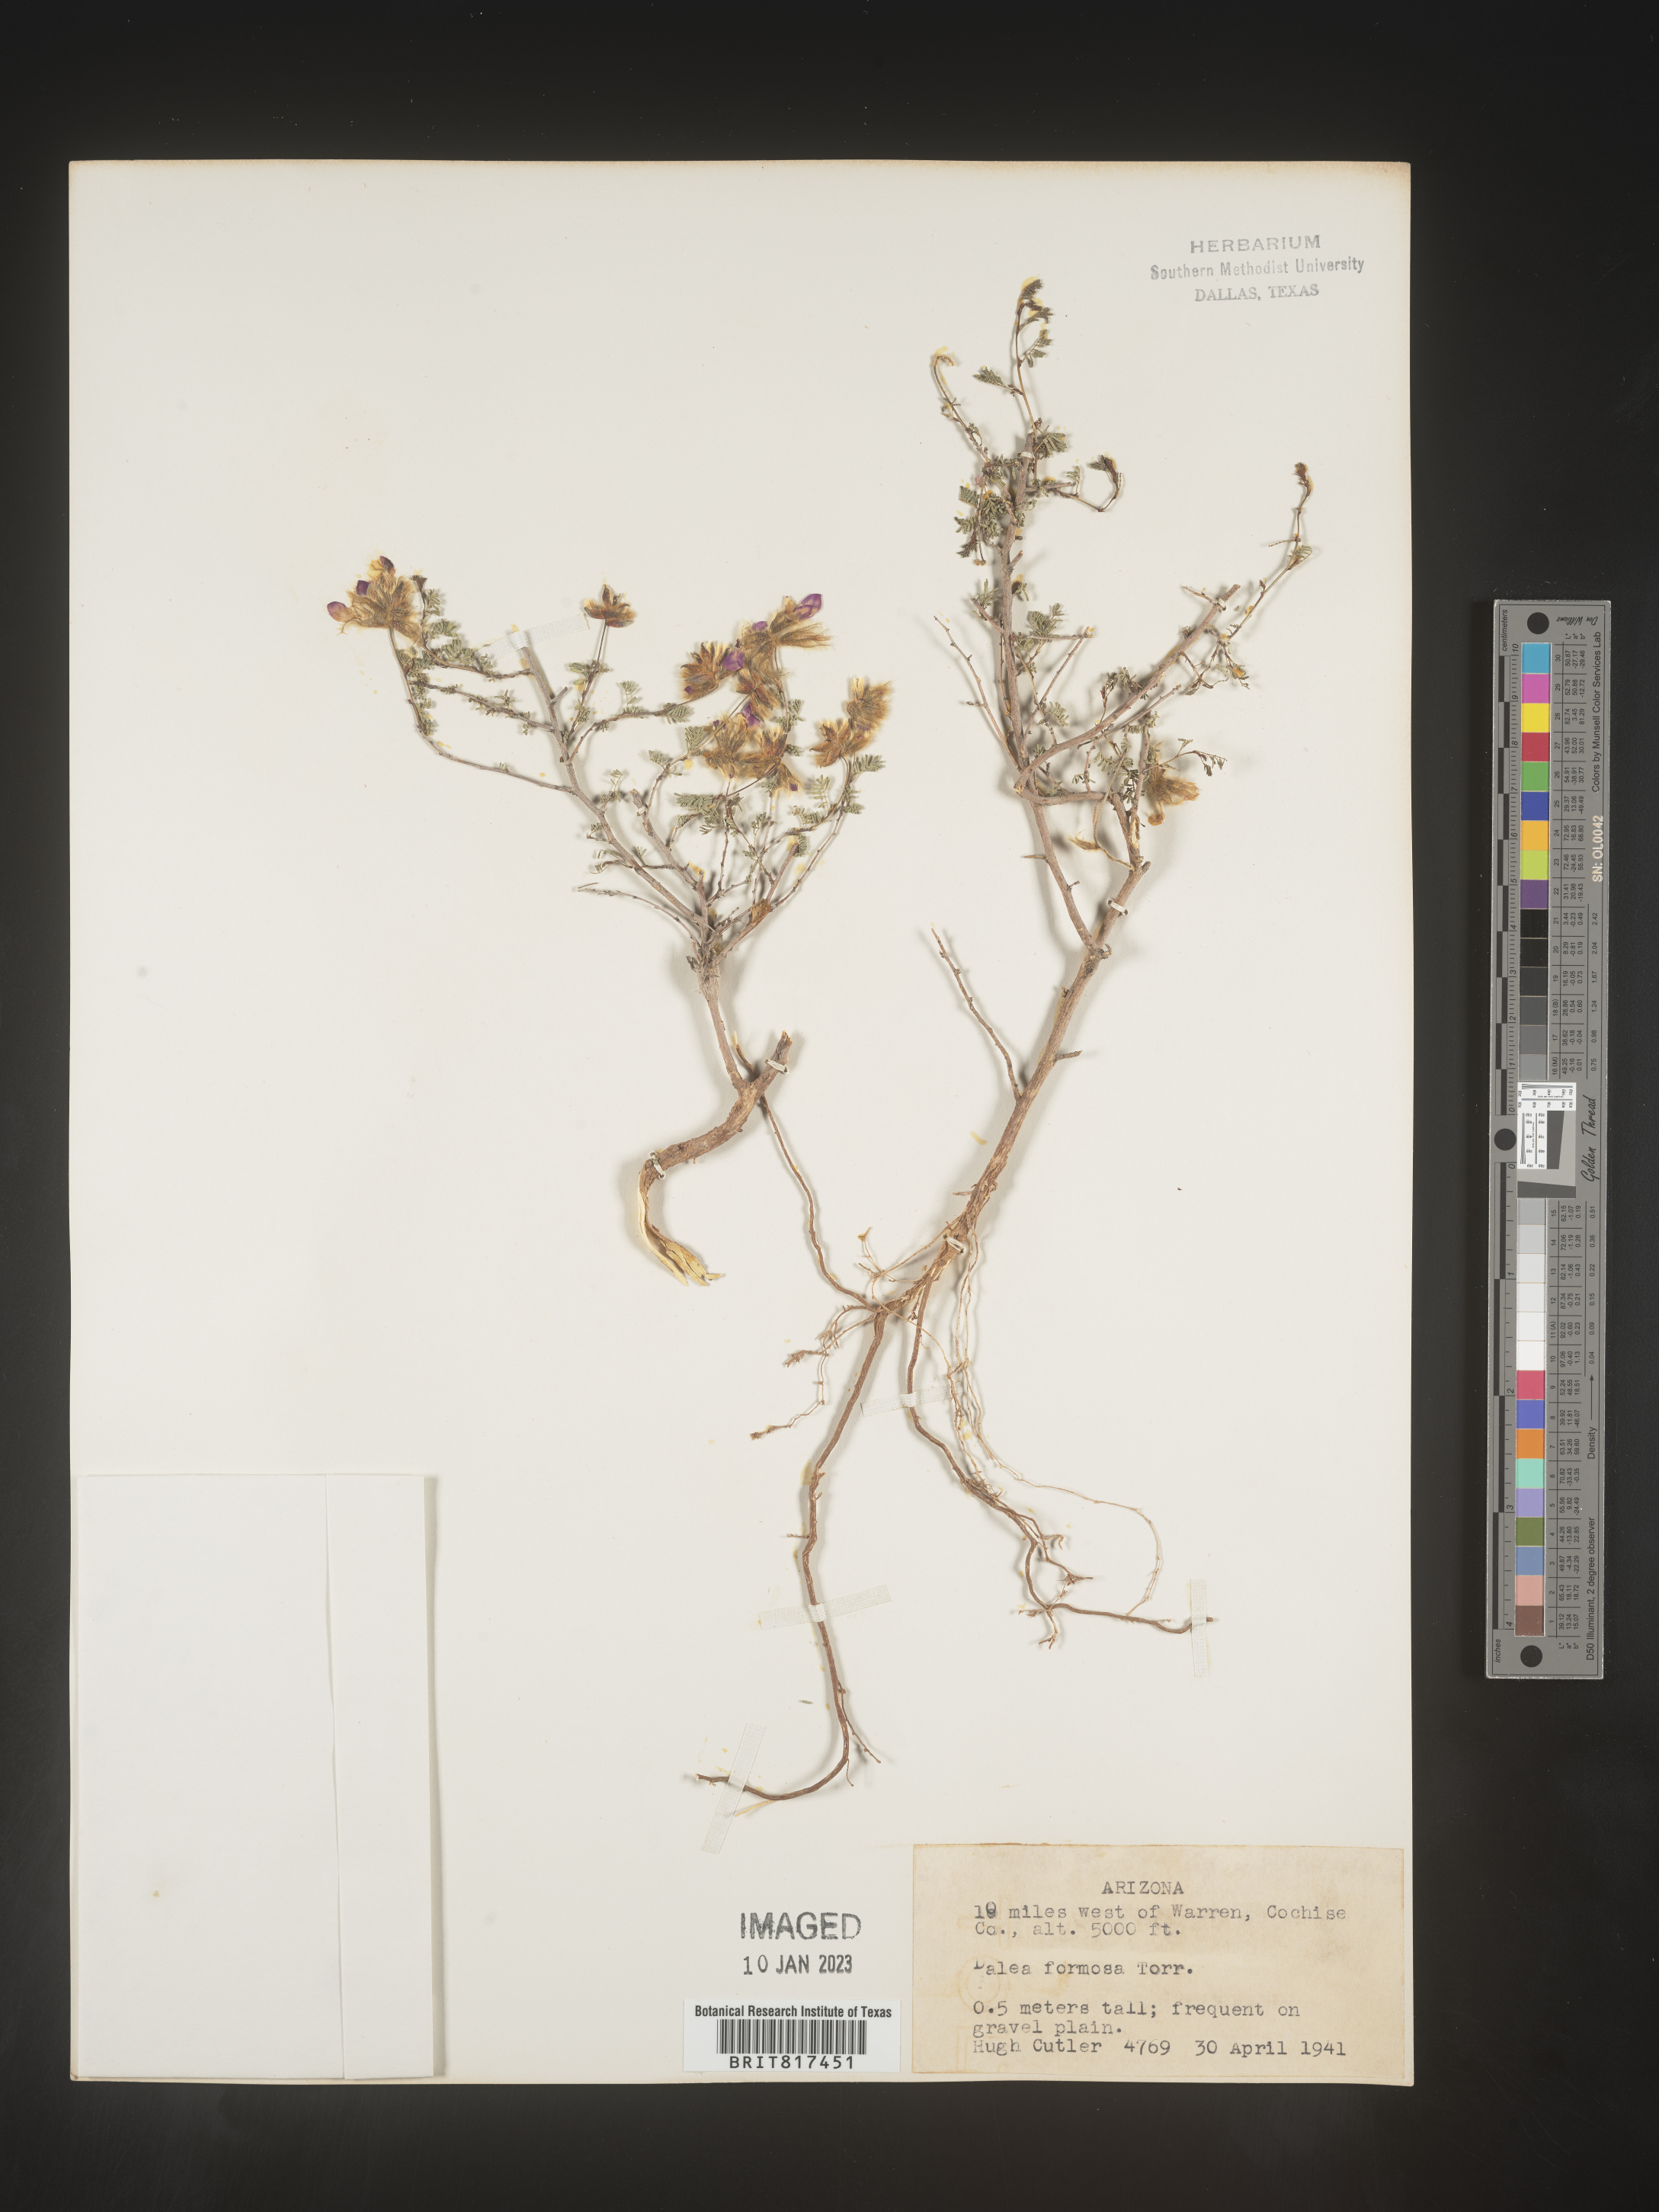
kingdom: Plantae
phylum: Tracheophyta
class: Magnoliopsida
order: Fabales
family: Fabaceae
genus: Dalea
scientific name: Dalea formosa
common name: Feather-plume dalea
